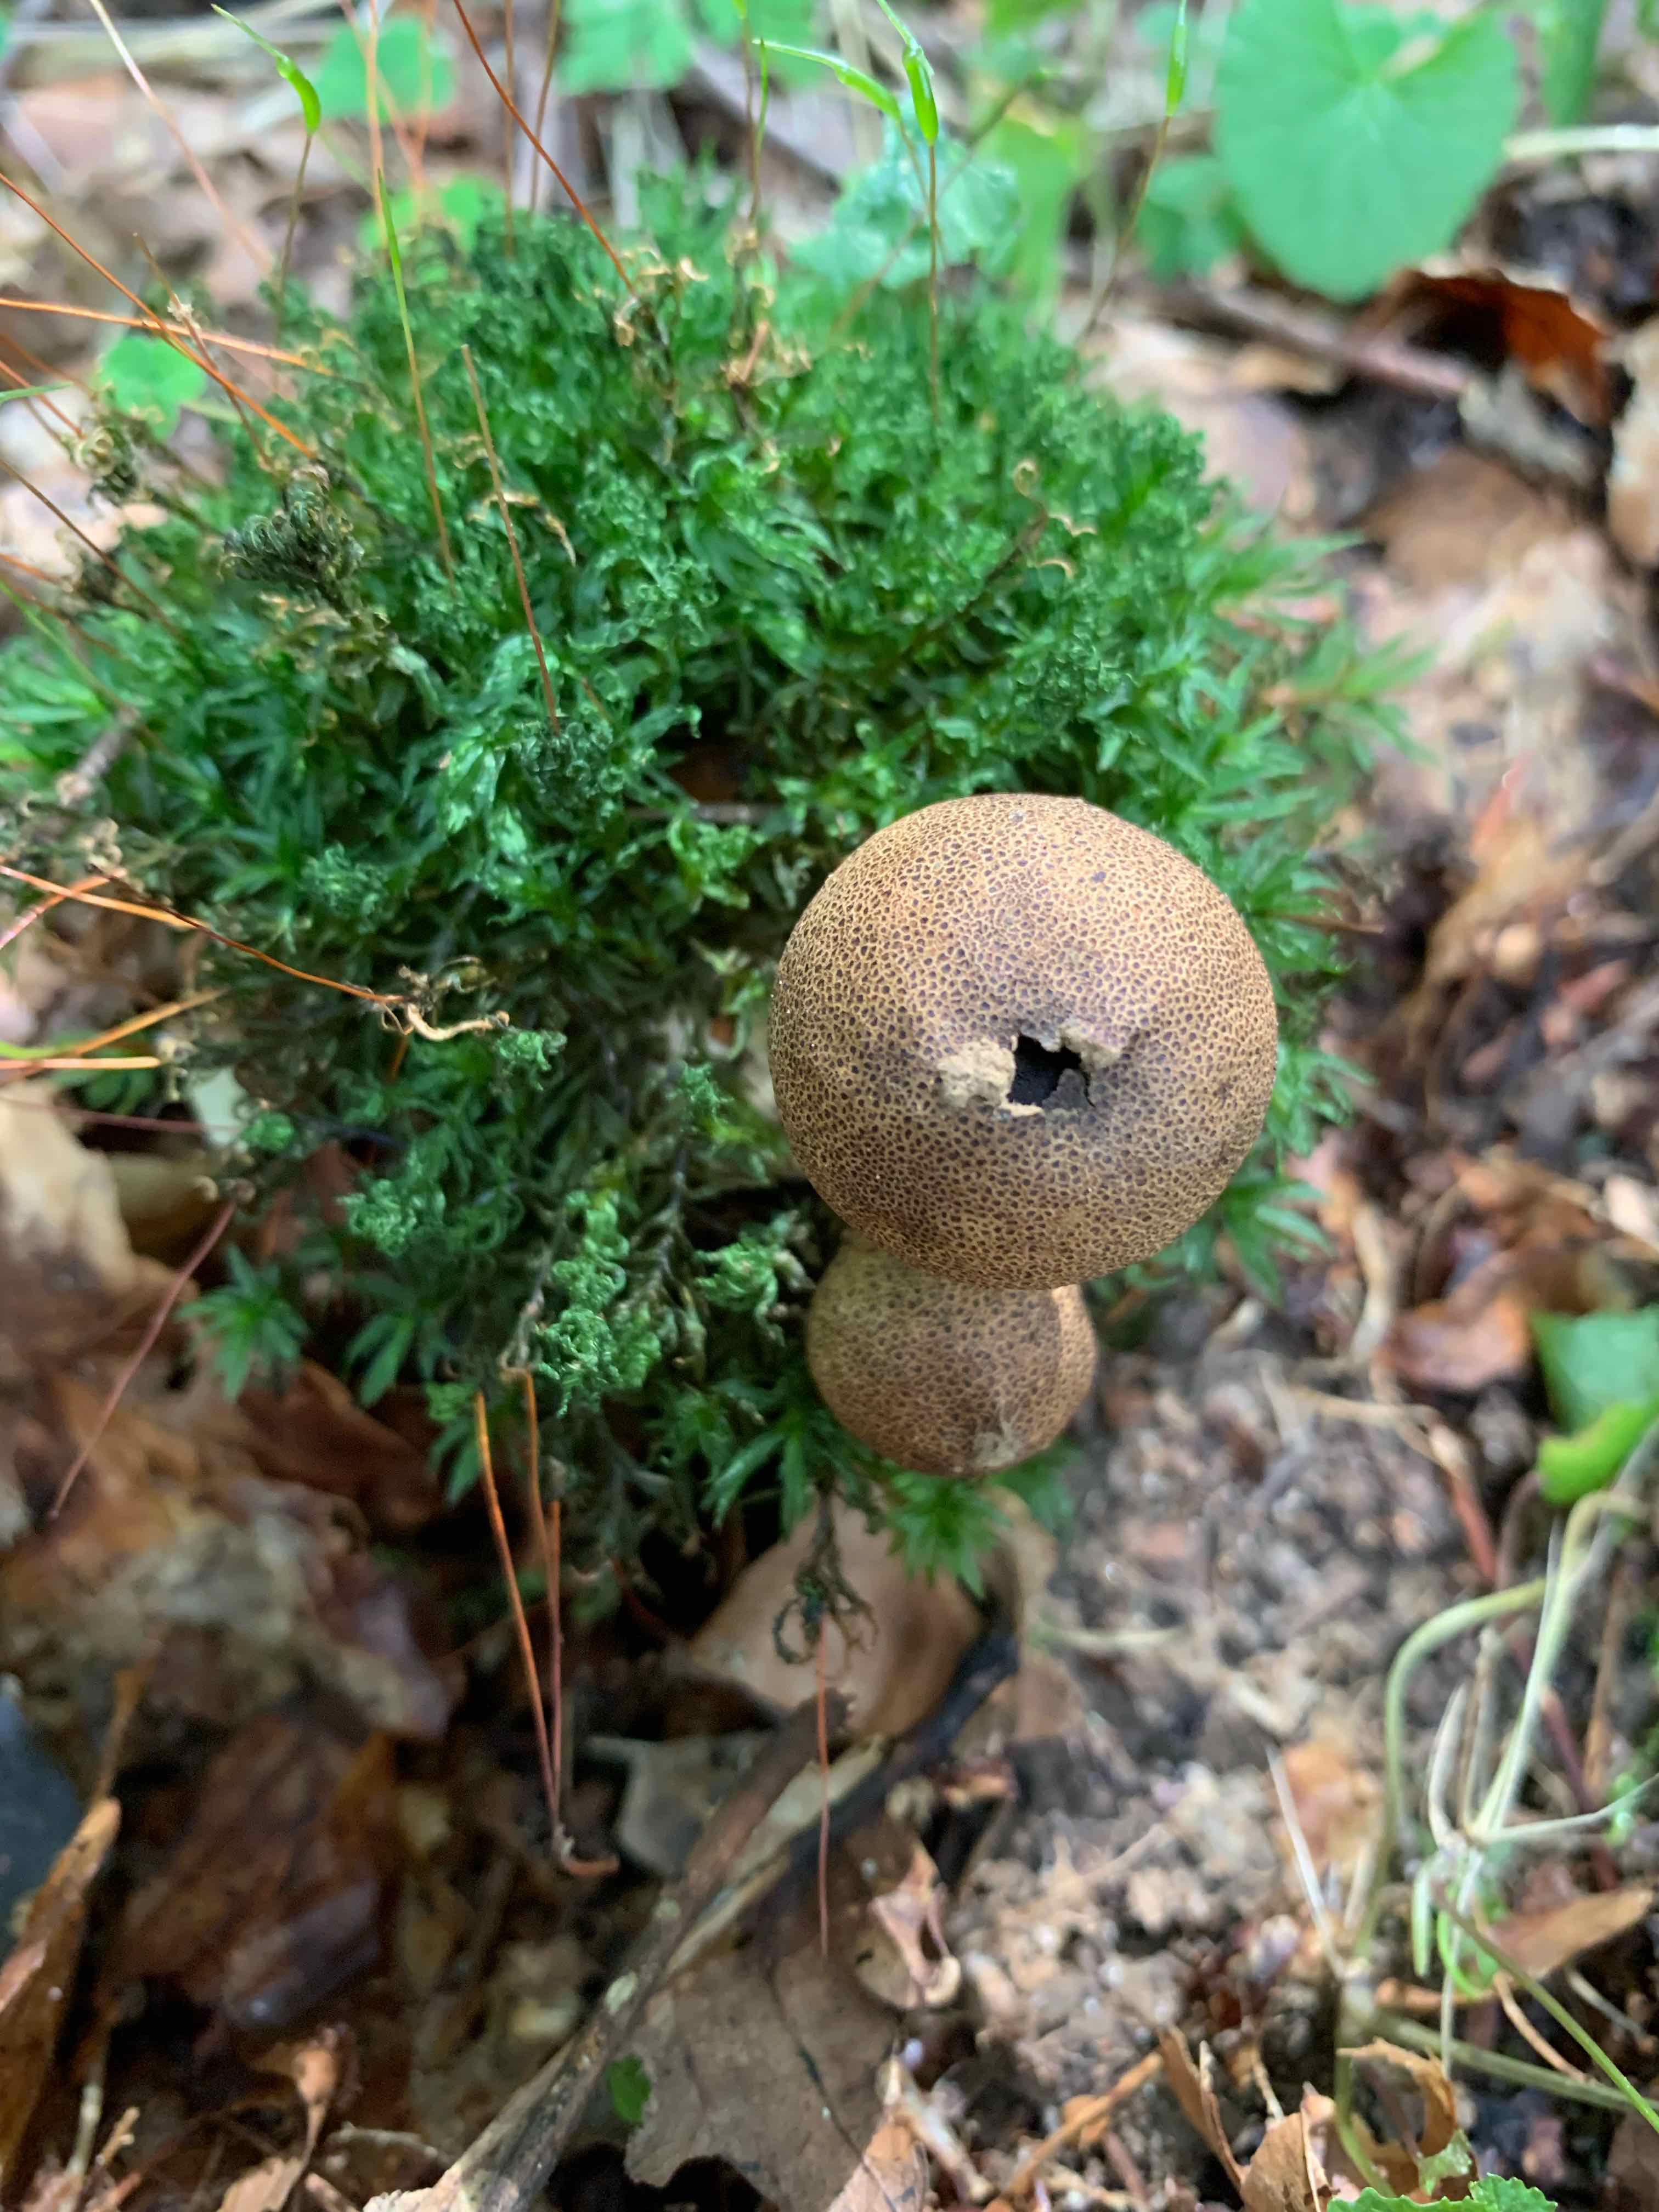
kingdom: Fungi
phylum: Basidiomycota
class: Agaricomycetes
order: Boletales
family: Sclerodermataceae
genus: Scleroderma
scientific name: Scleroderma verrucosum
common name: stilket bruskbold
